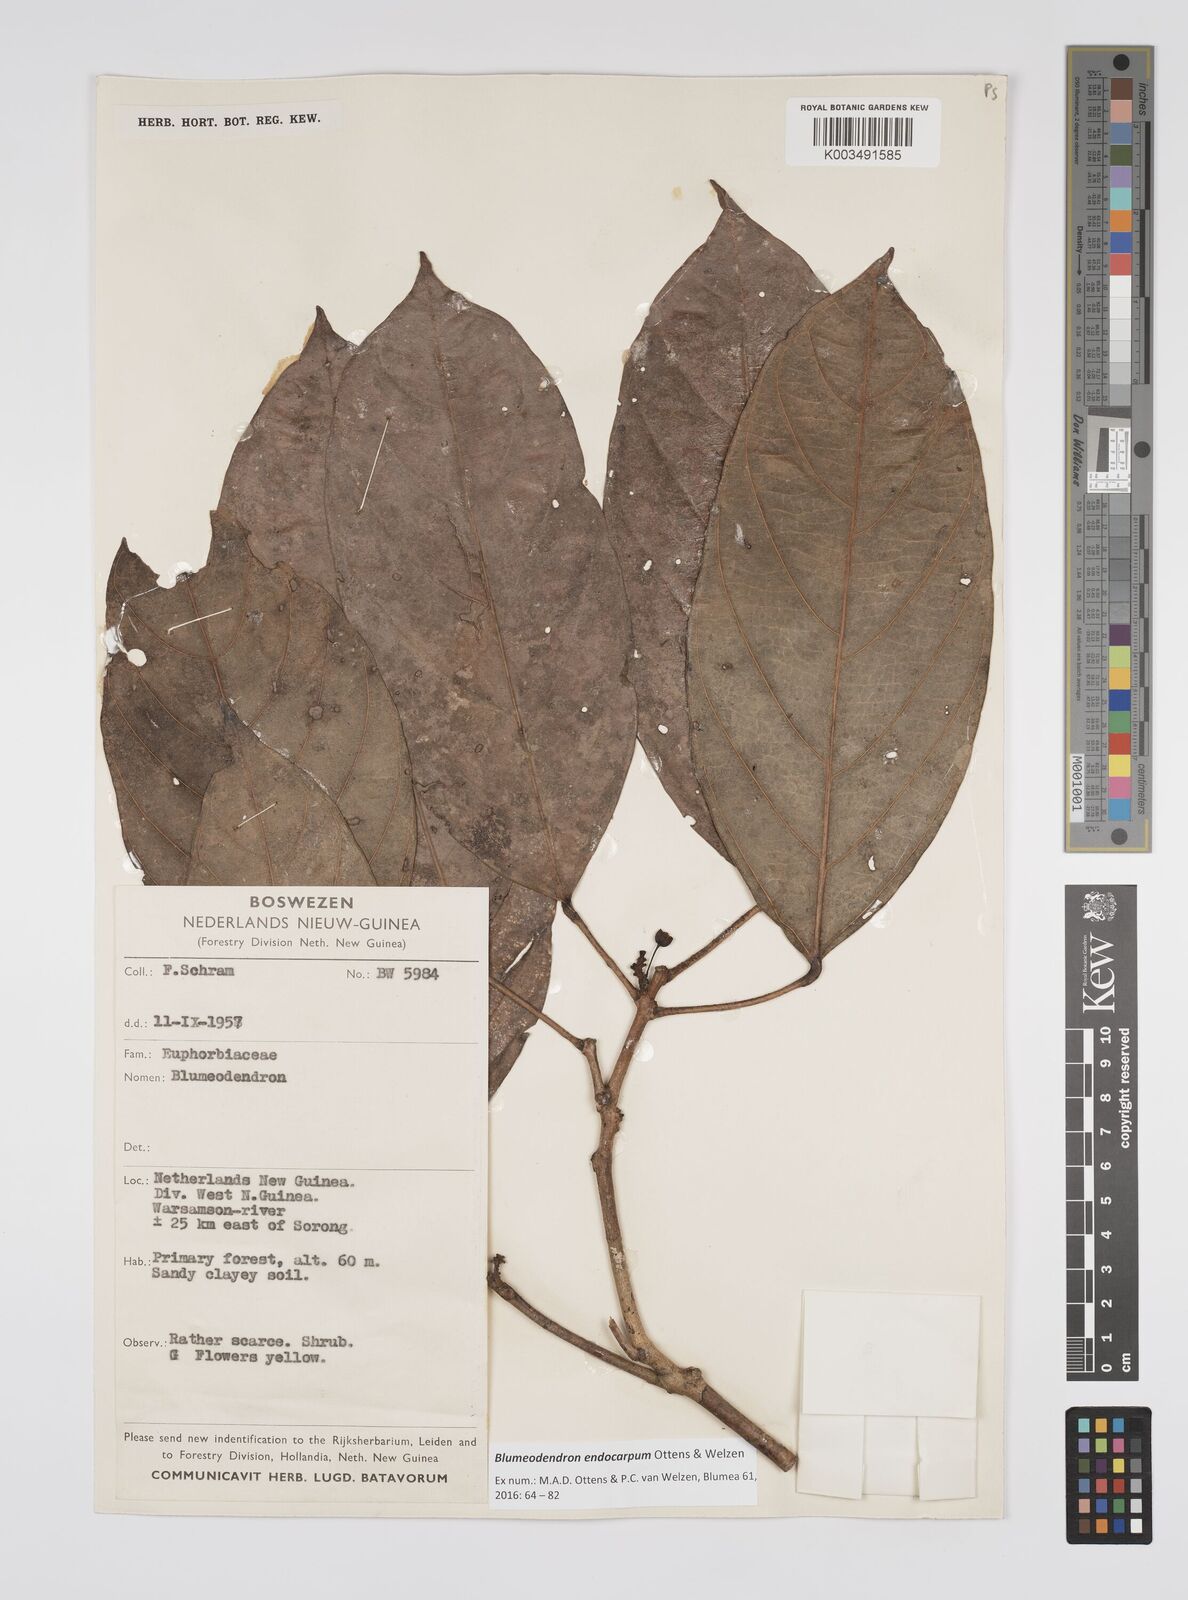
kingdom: Plantae
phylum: Tracheophyta
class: Magnoliopsida
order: Malpighiales
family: Euphorbiaceae
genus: Blumeodendron
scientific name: Blumeodendron endocarpum
